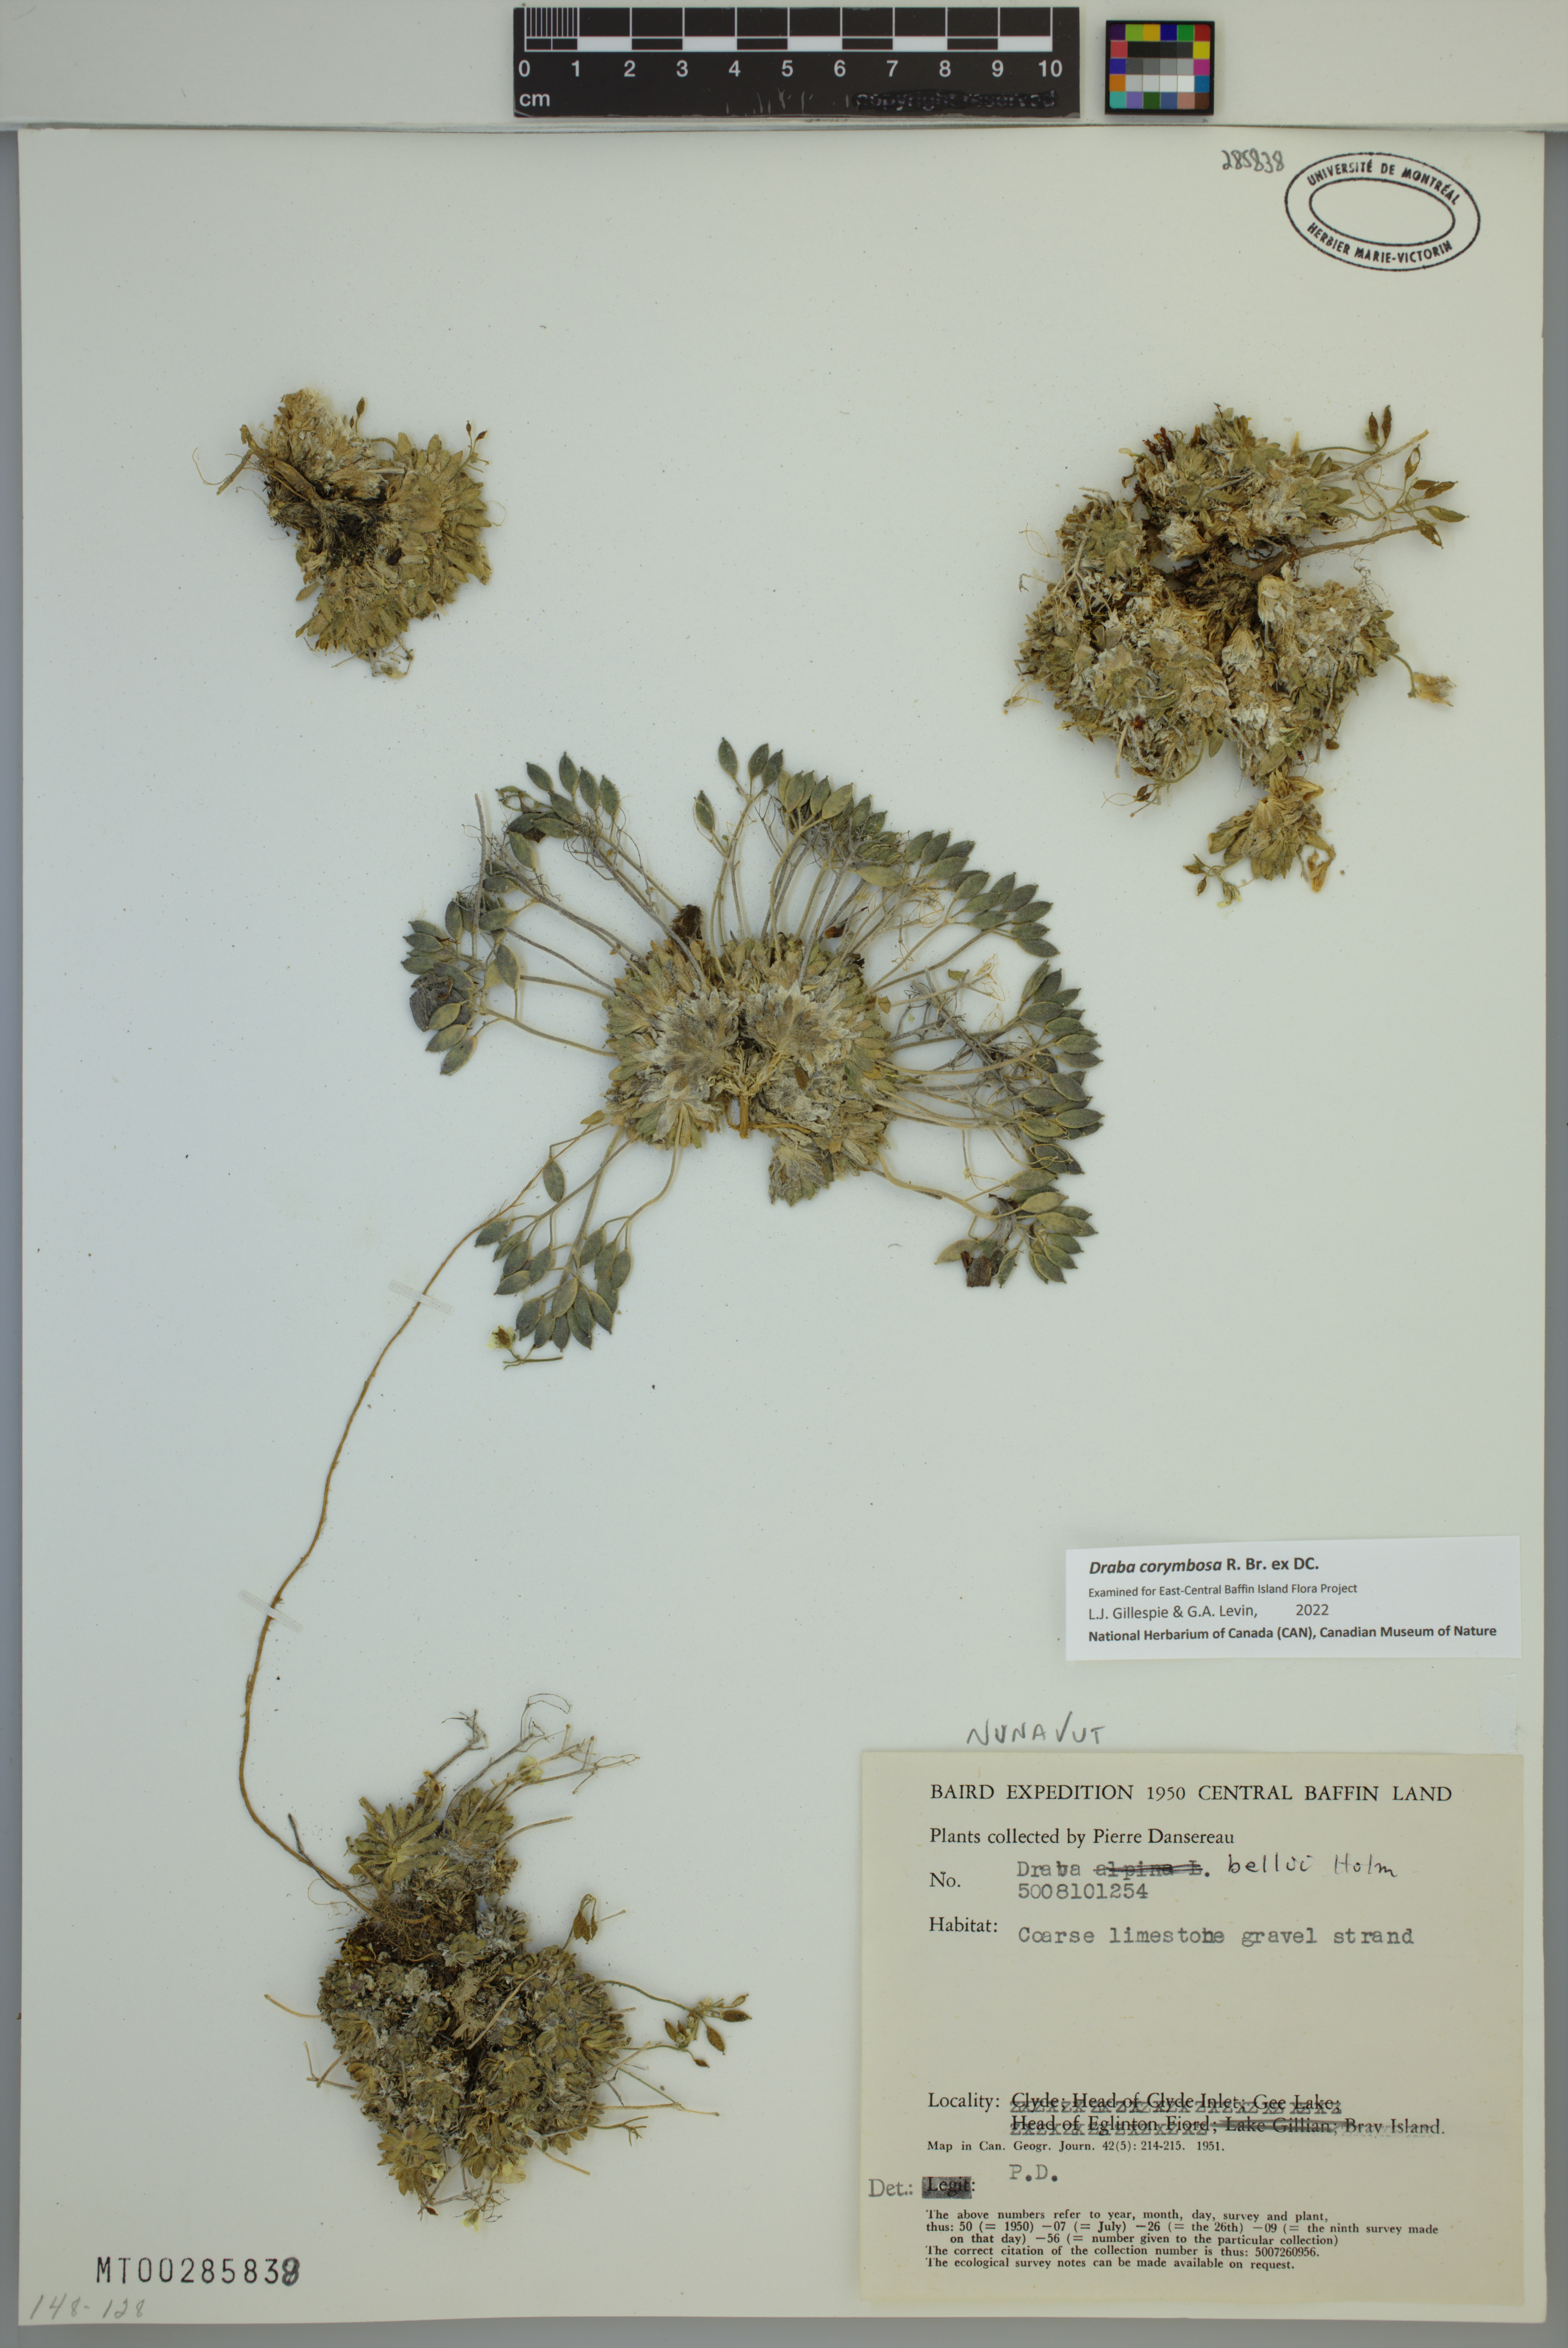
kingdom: Plantae
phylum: Tracheophyta
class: Magnoliopsida
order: Brassicales
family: Brassicaceae
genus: Draba
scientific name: Draba corymbosa
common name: Cushion whitlow-grass
